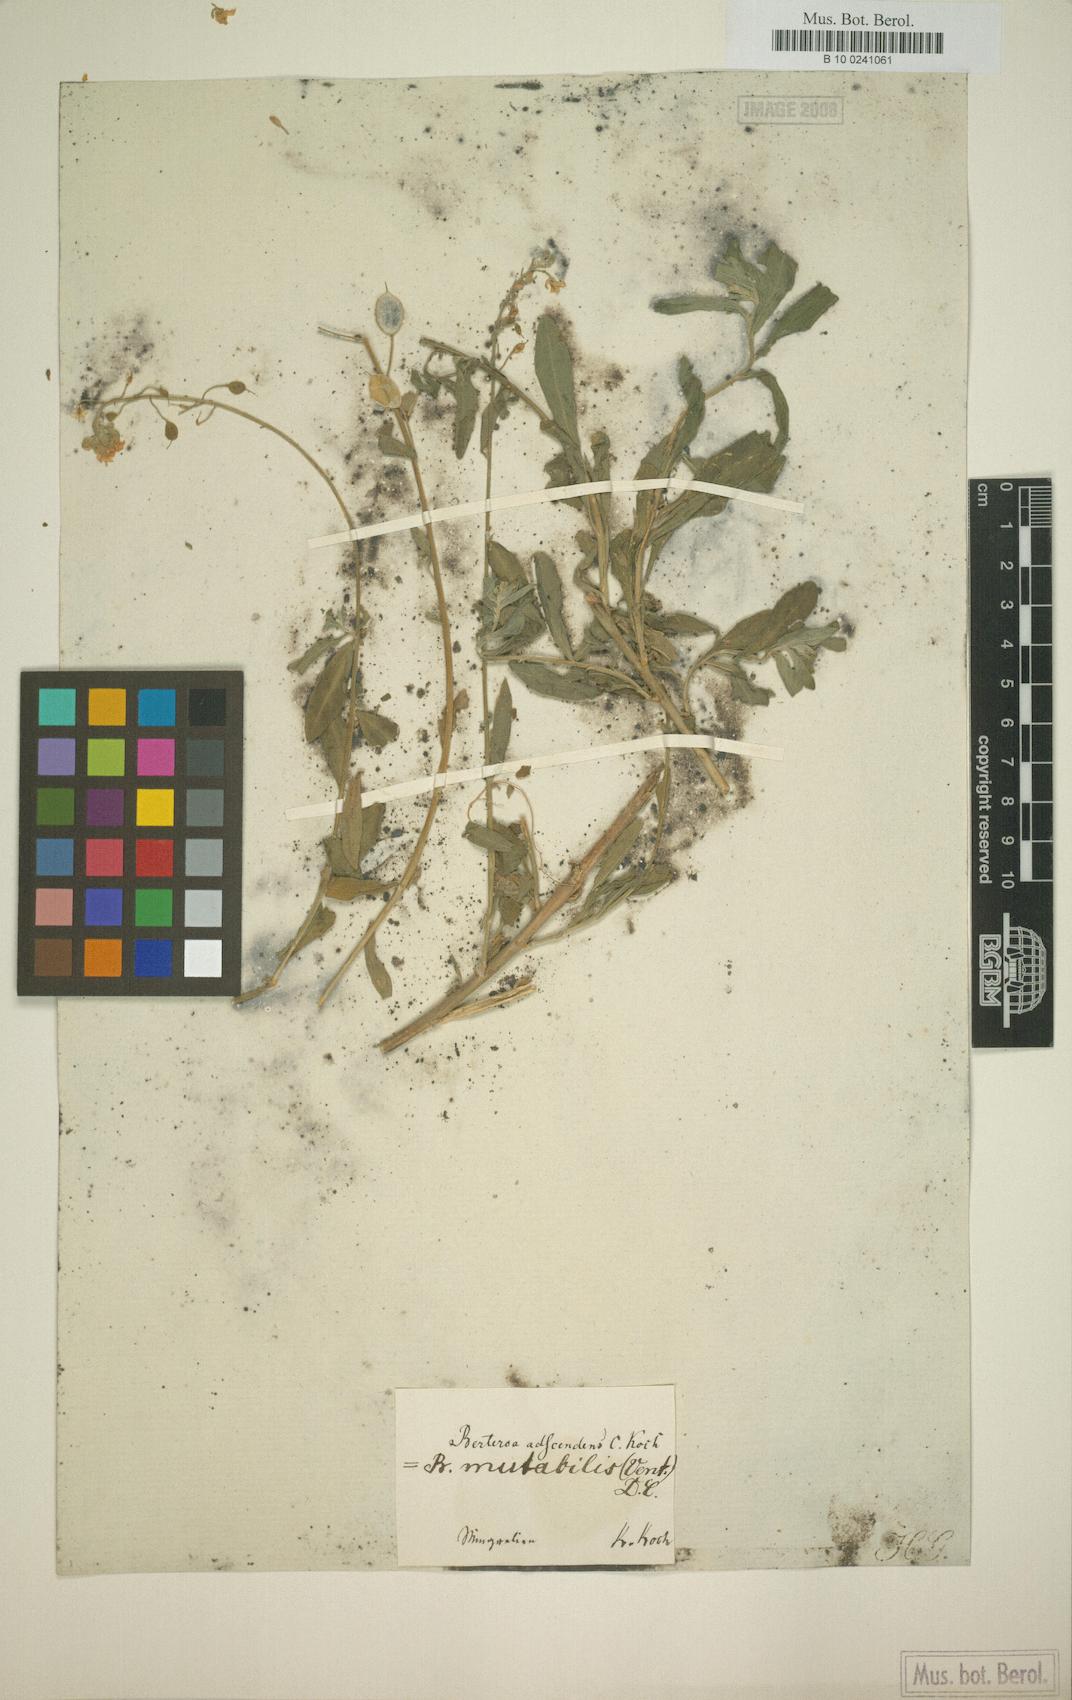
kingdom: Plantae
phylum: Tracheophyta
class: Magnoliopsida
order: Brassicales
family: Brassicaceae
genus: Berteroa
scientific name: Berteroa mutabilis
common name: Roadside false madwort
